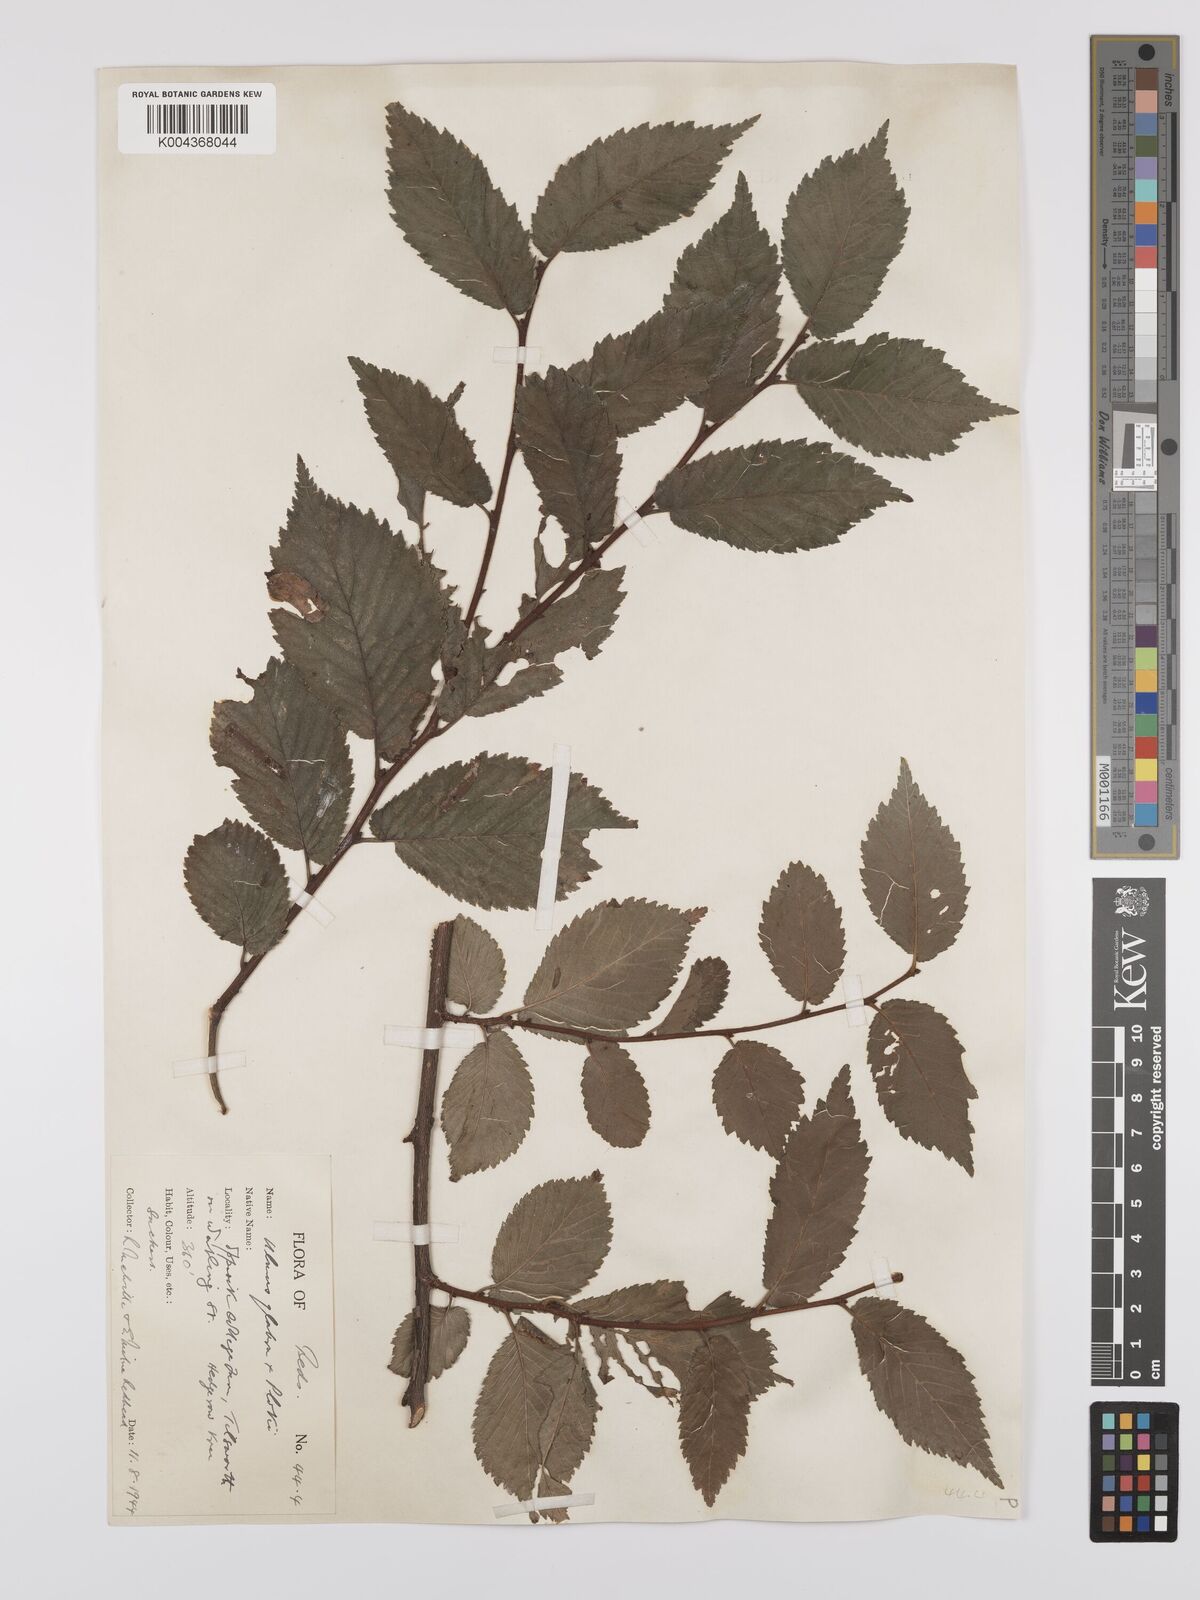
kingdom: Plantae
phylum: Tracheophyta
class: Magnoliopsida
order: Rosales
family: Ulmaceae
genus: Ulmus
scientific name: Ulmus
